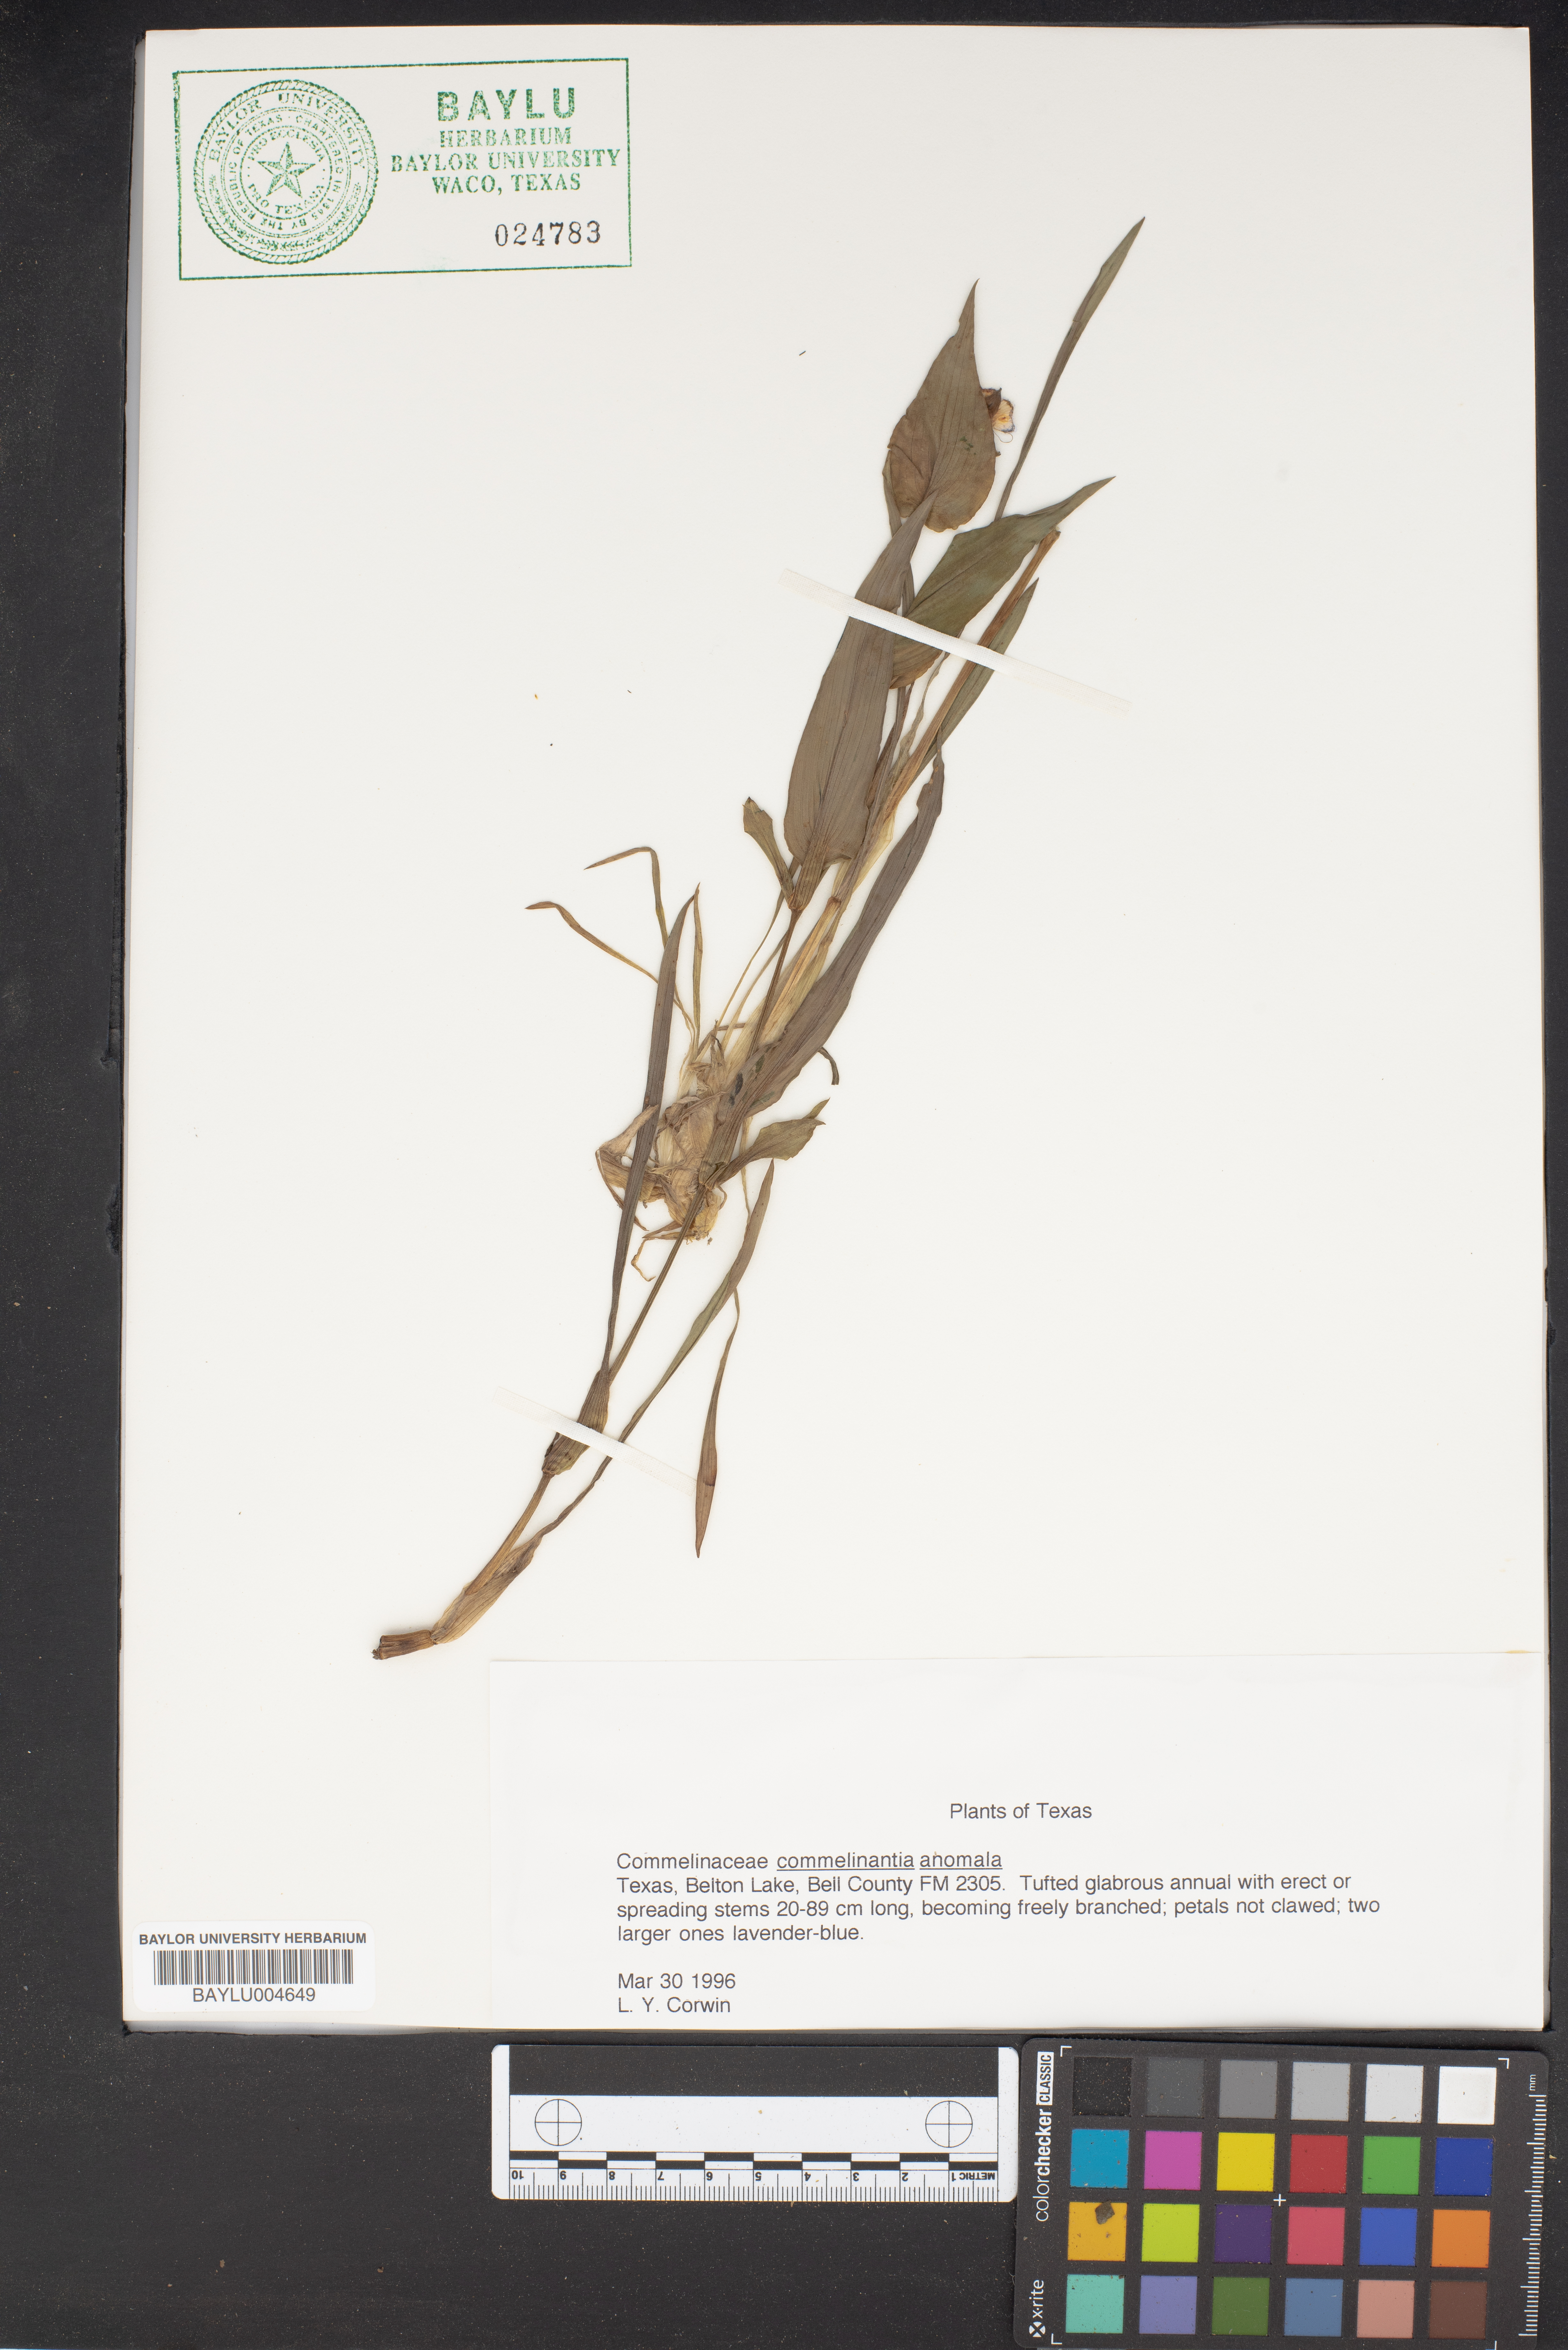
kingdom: Plantae
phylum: Tracheophyta
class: Liliopsida
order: Commelinales
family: Commelinaceae
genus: Tinantia
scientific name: Tinantia anomala
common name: False dayflower
